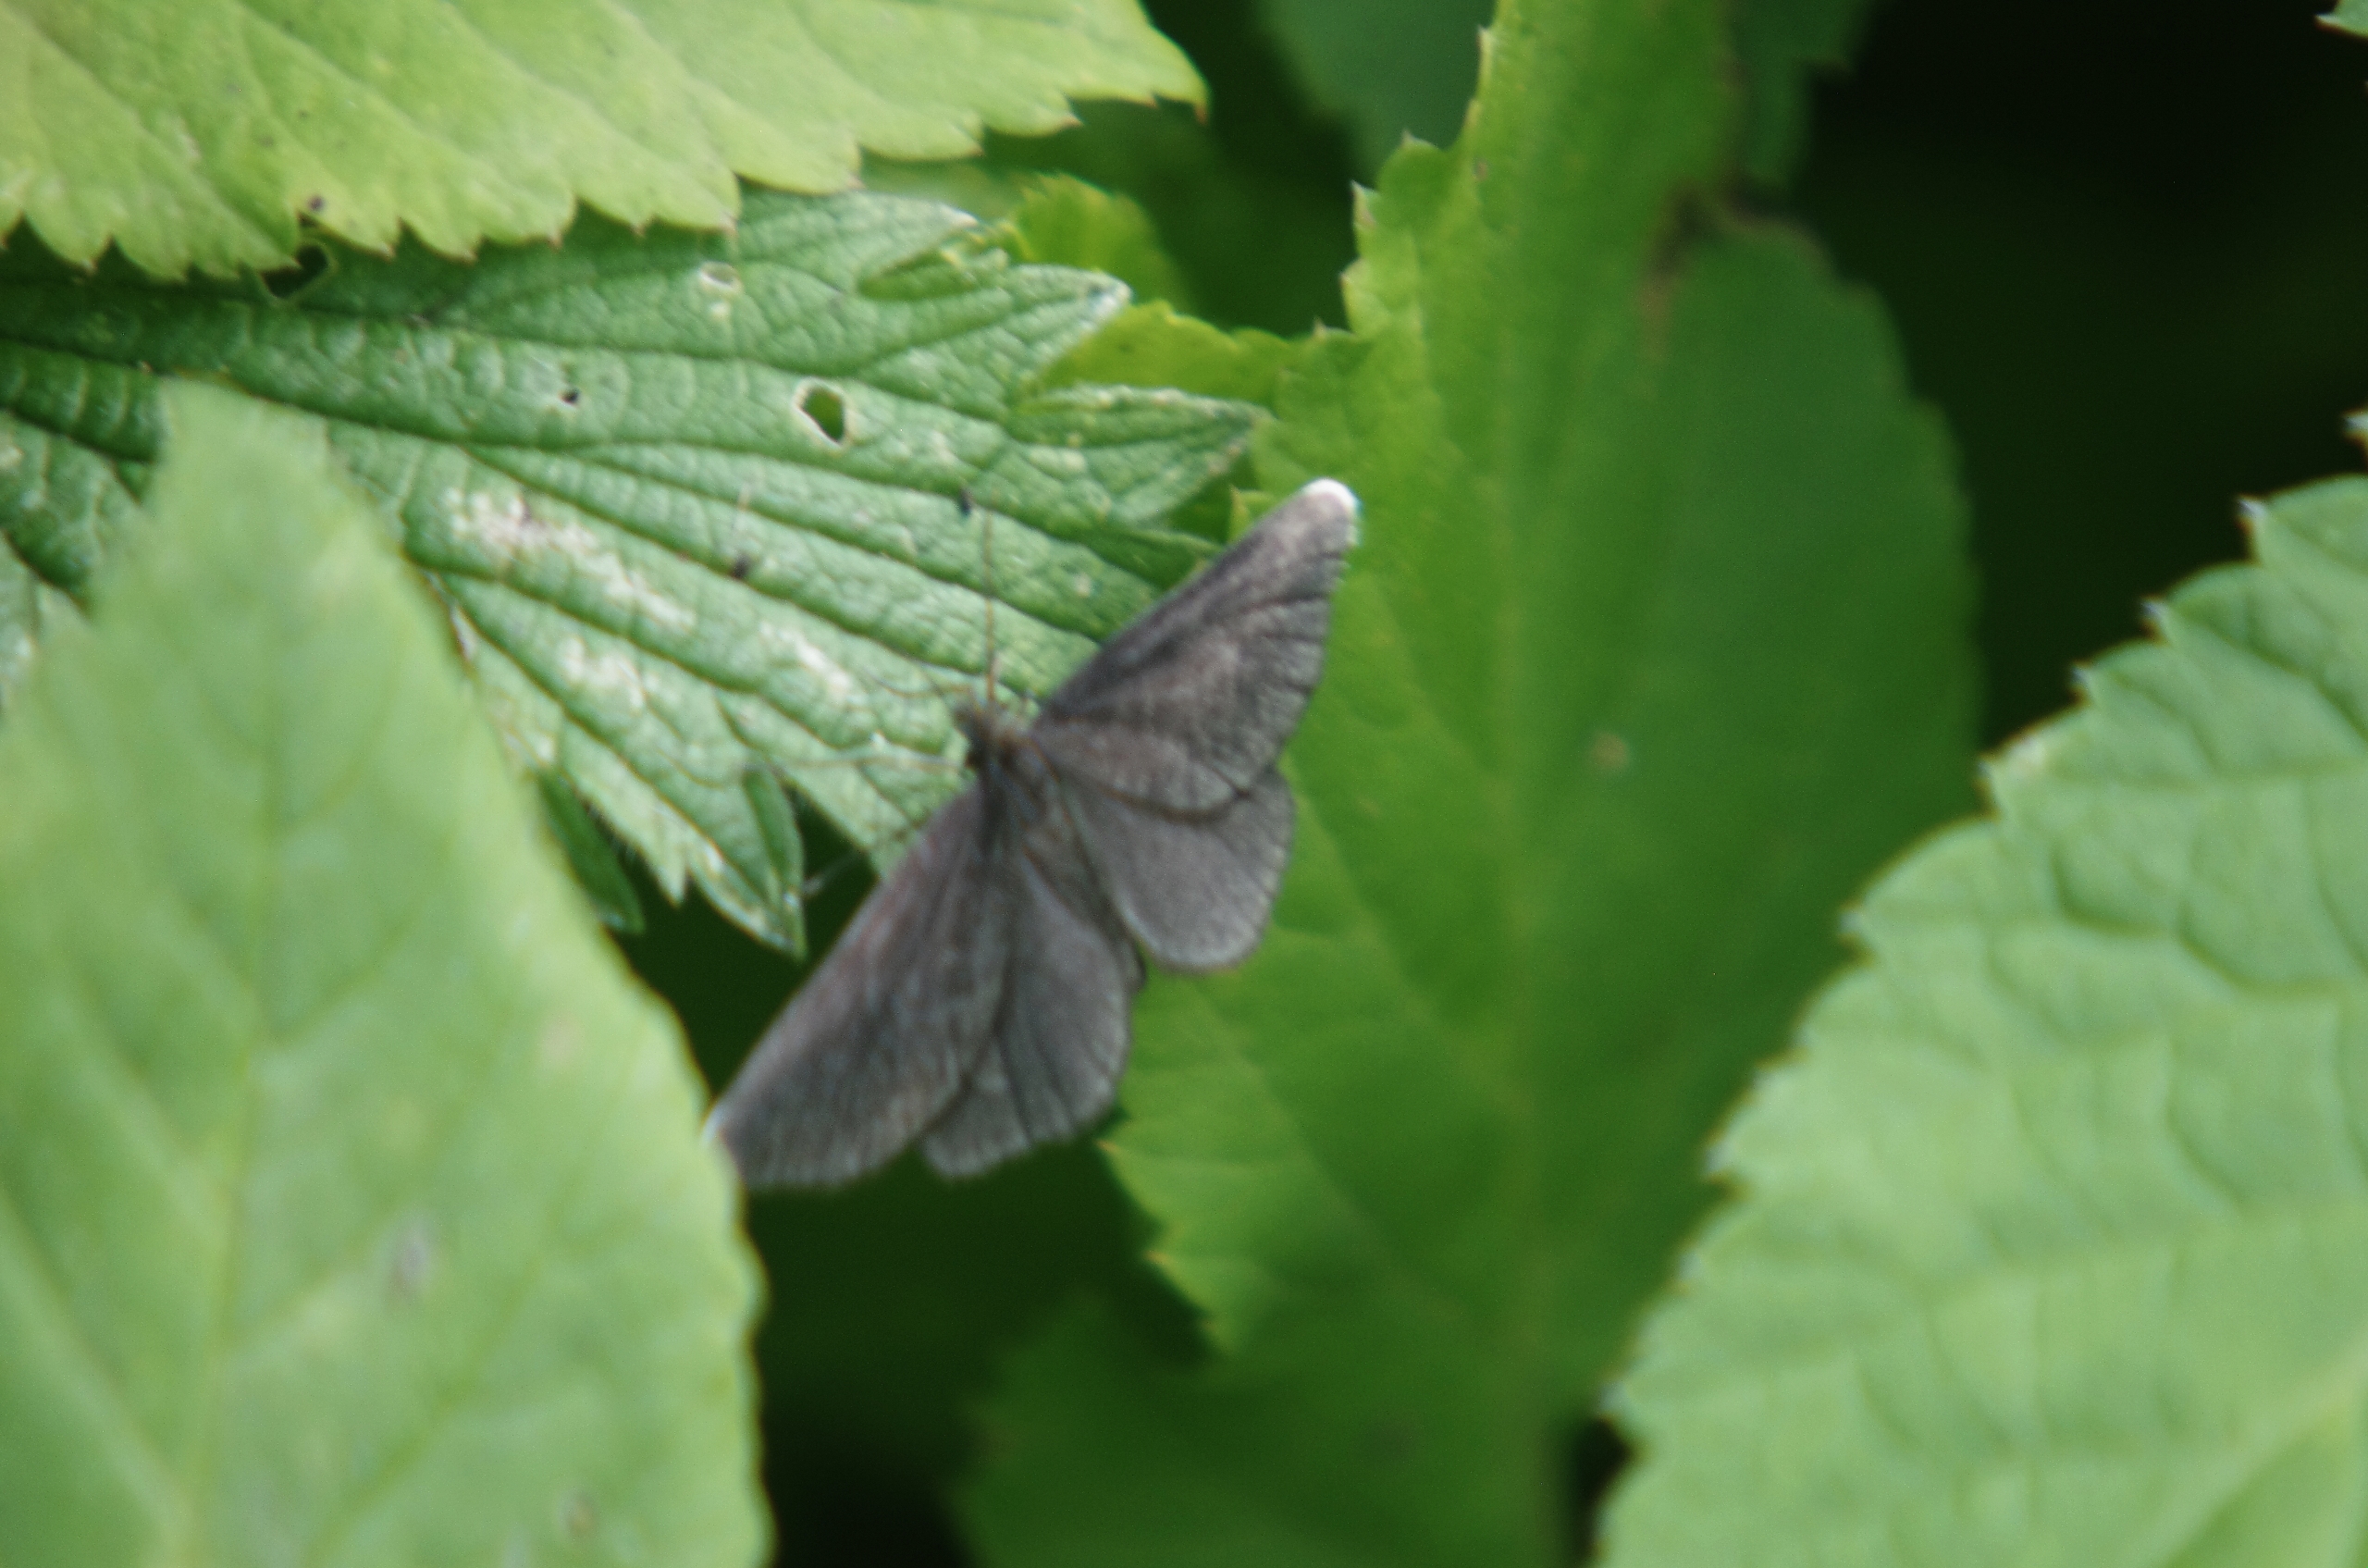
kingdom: Animalia
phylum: Arthropoda
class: Insecta
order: Lepidoptera
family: Geometridae
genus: Odezia
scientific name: Odezia atrata
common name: Sort måler
